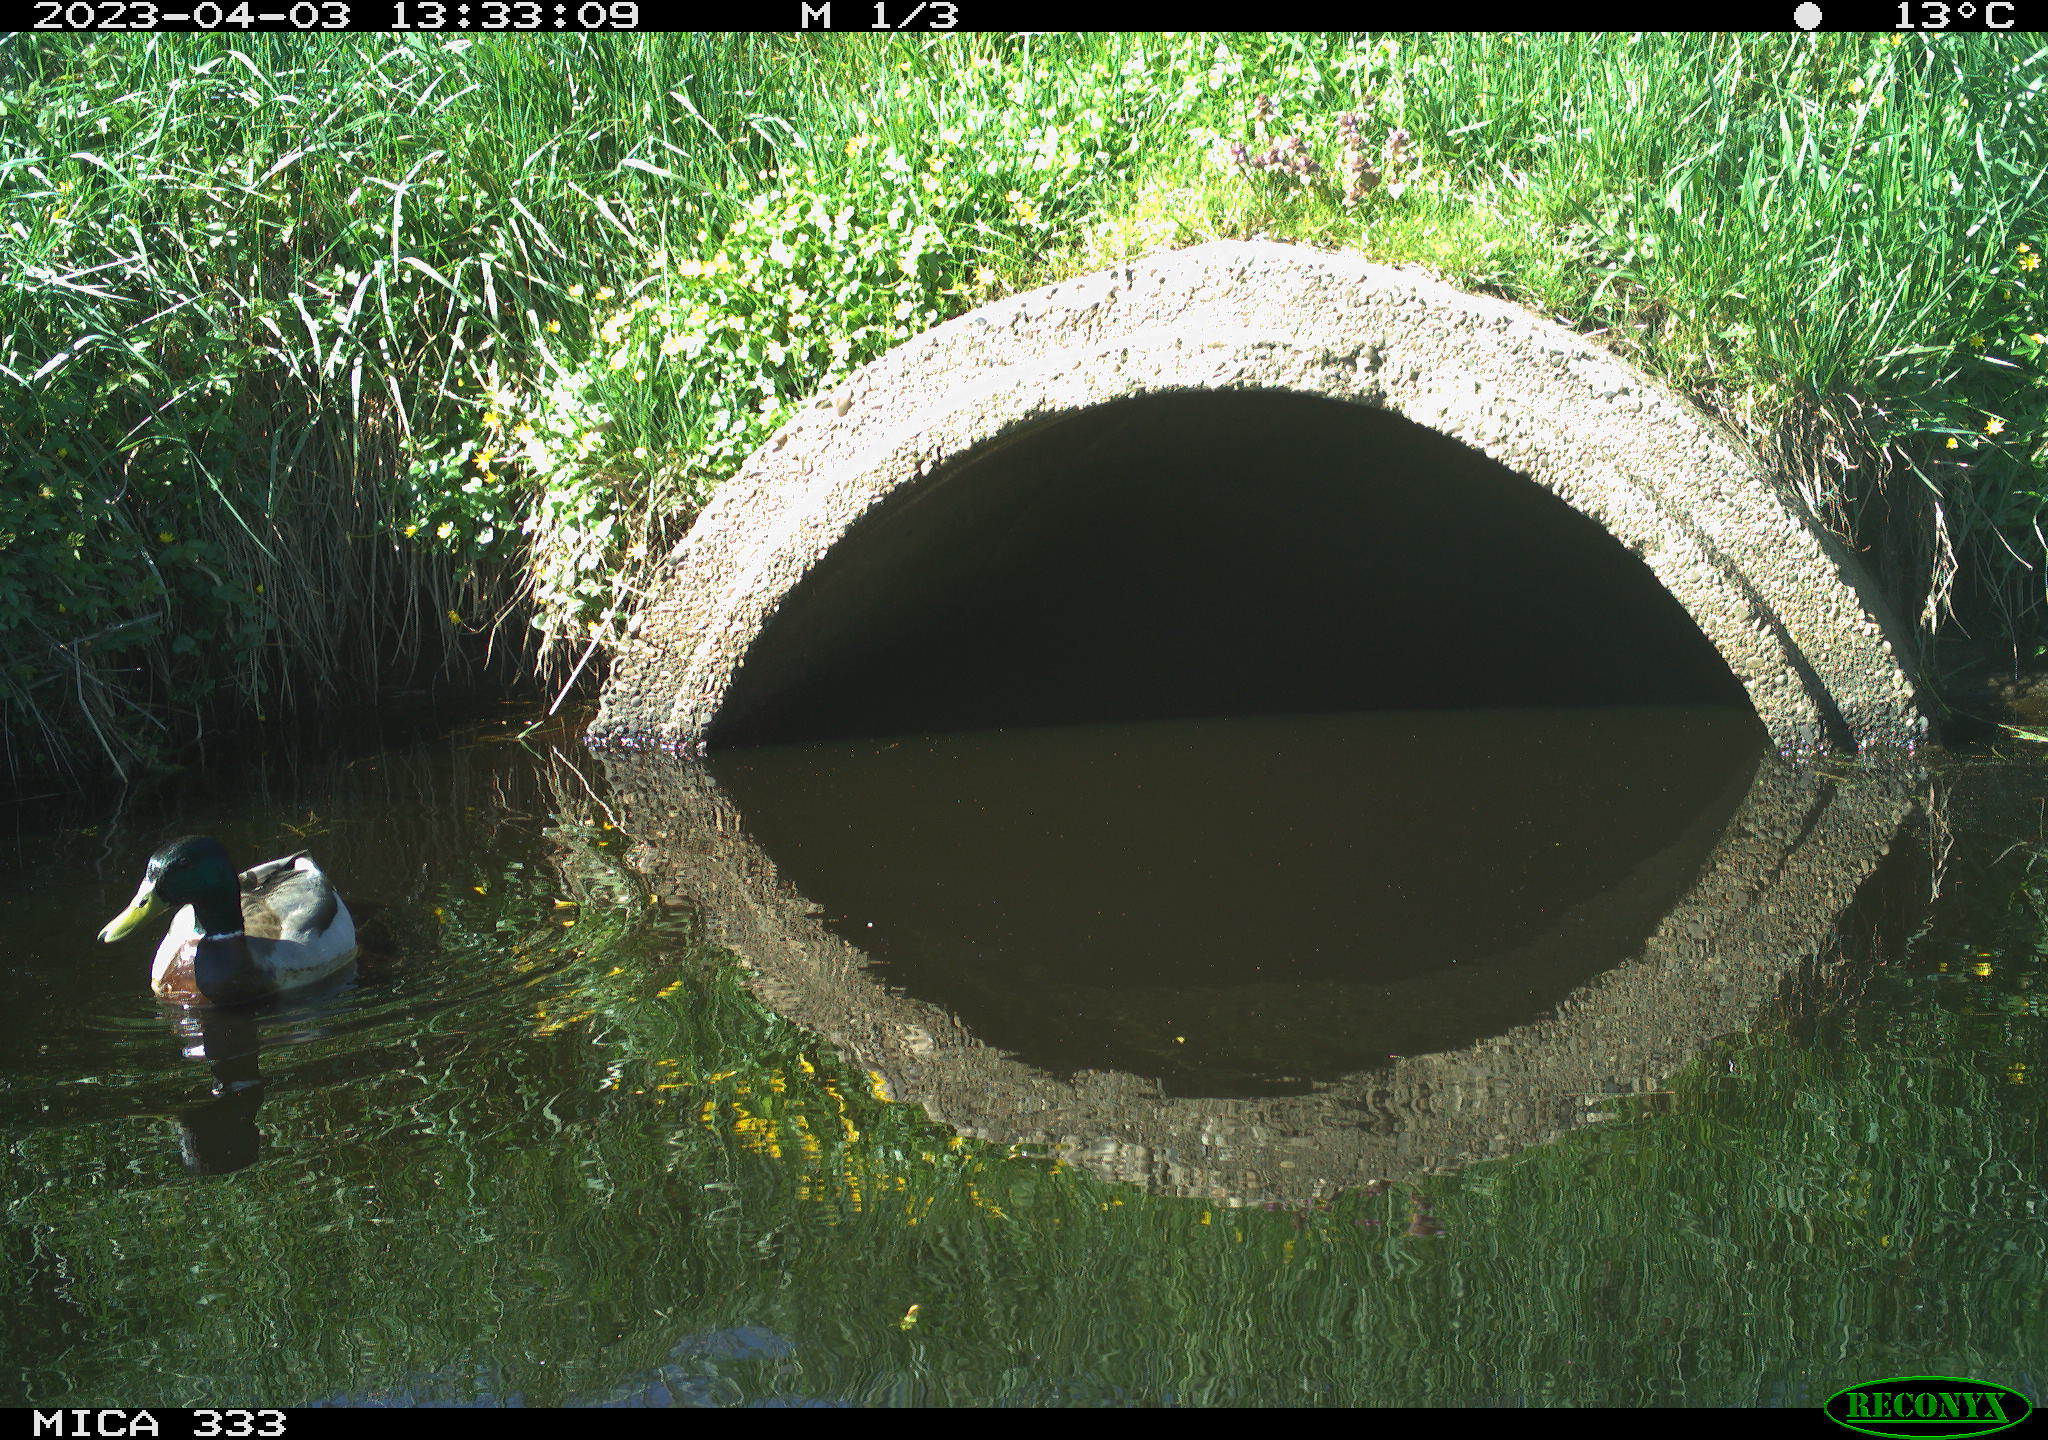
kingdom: Animalia
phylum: Chordata
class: Aves
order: Anseriformes
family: Anatidae
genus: Anas
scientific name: Anas
